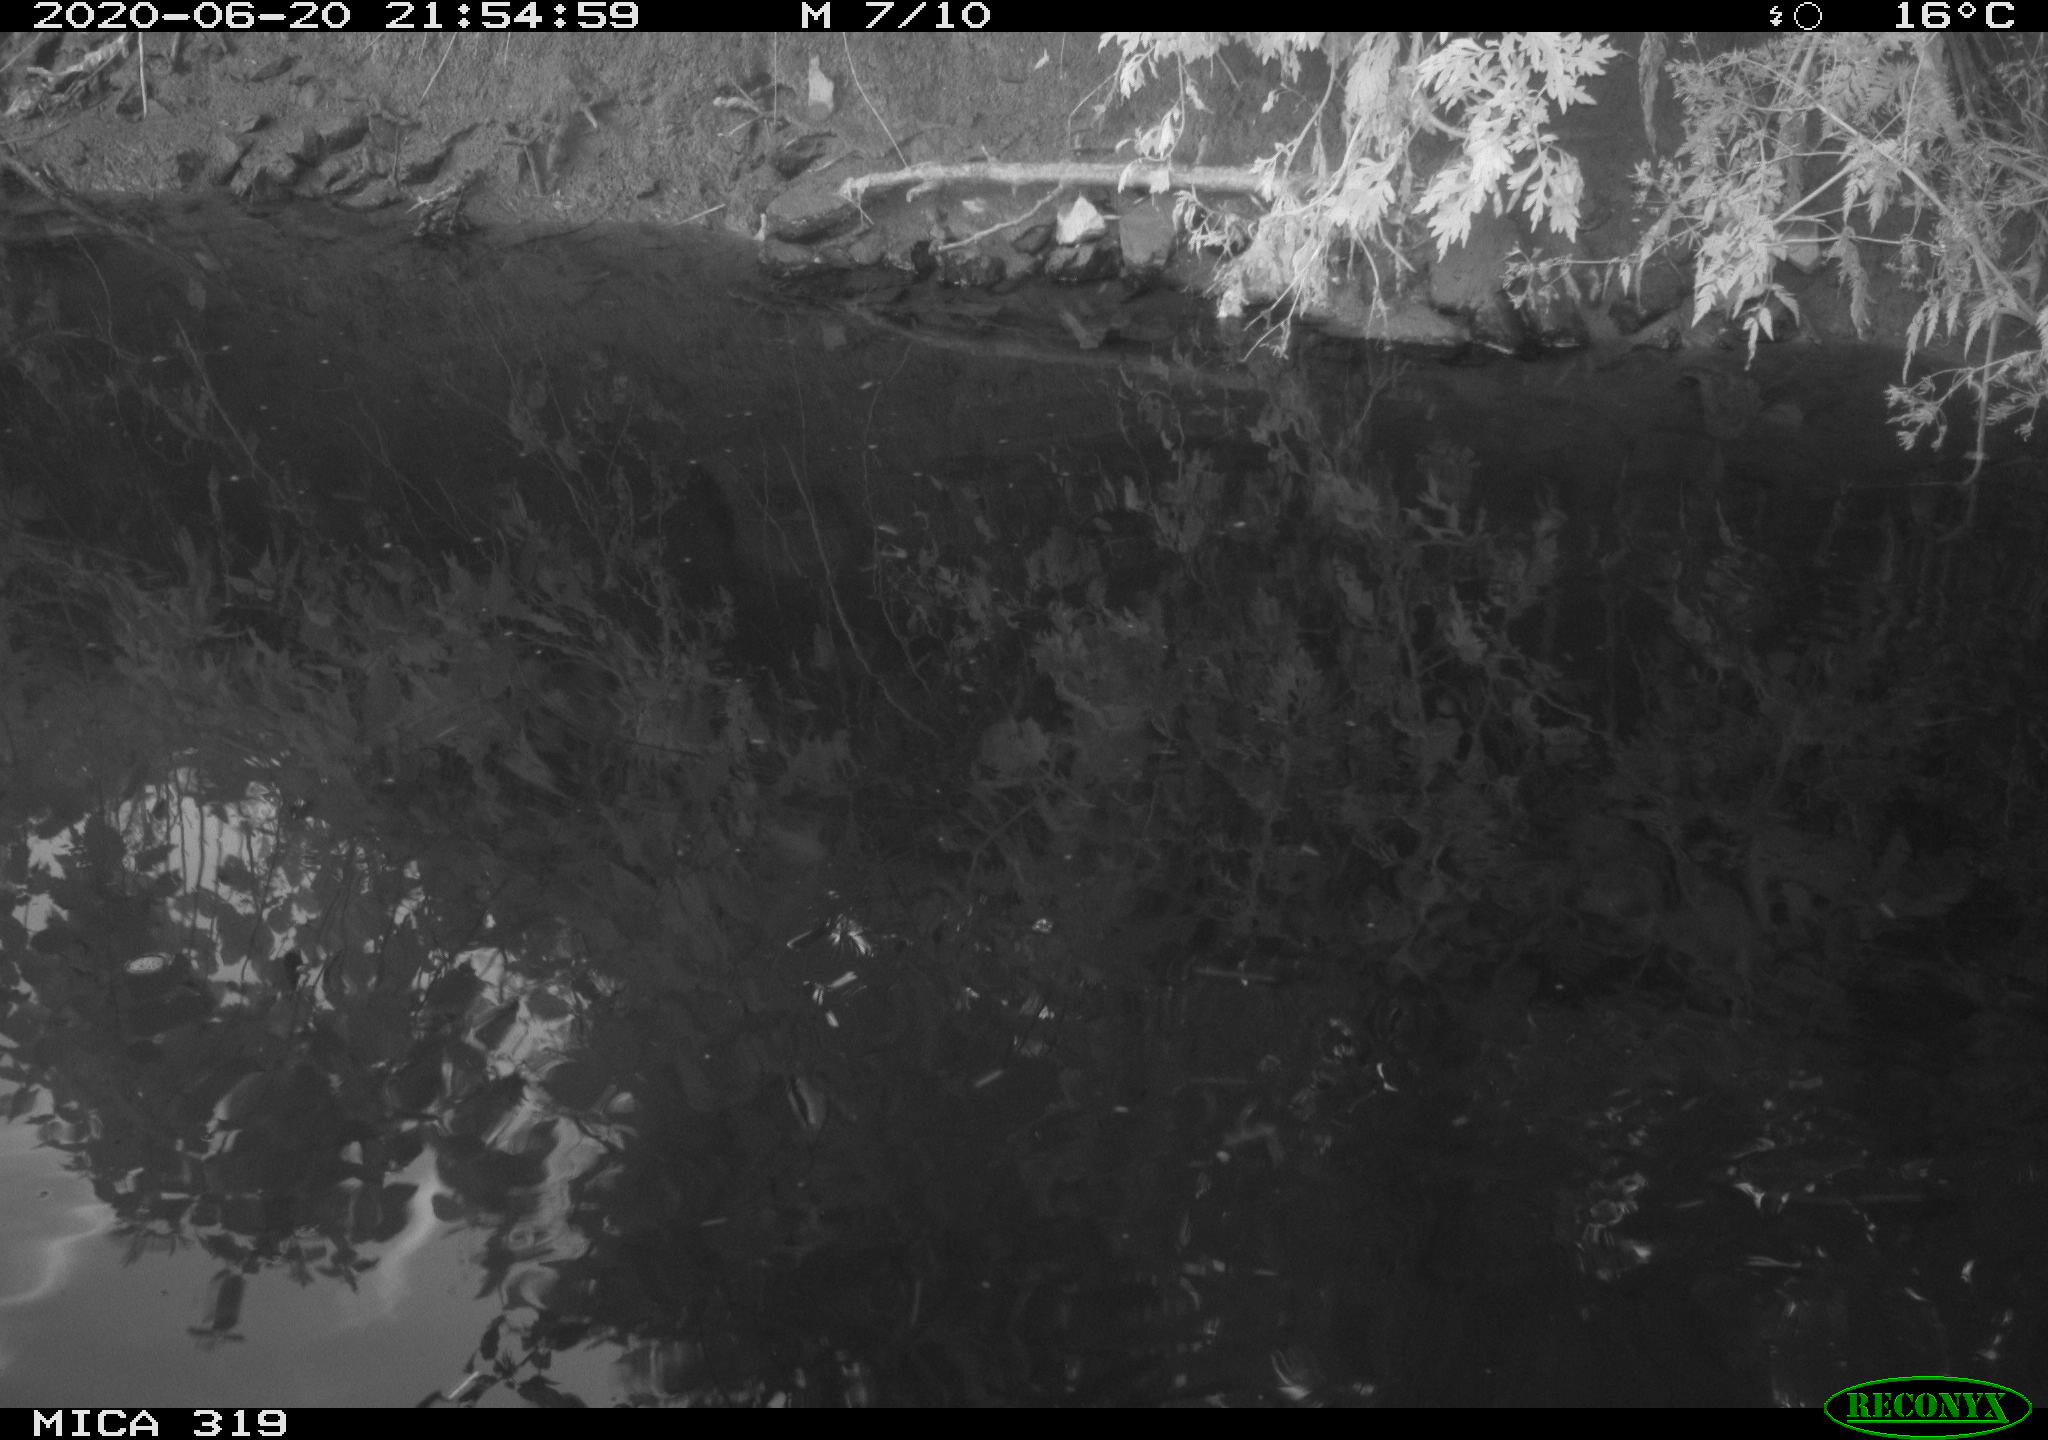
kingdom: Animalia
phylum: Chordata
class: Aves
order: Anseriformes
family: Anatidae
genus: Anas
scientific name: Anas platyrhynchos
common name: Mallard
